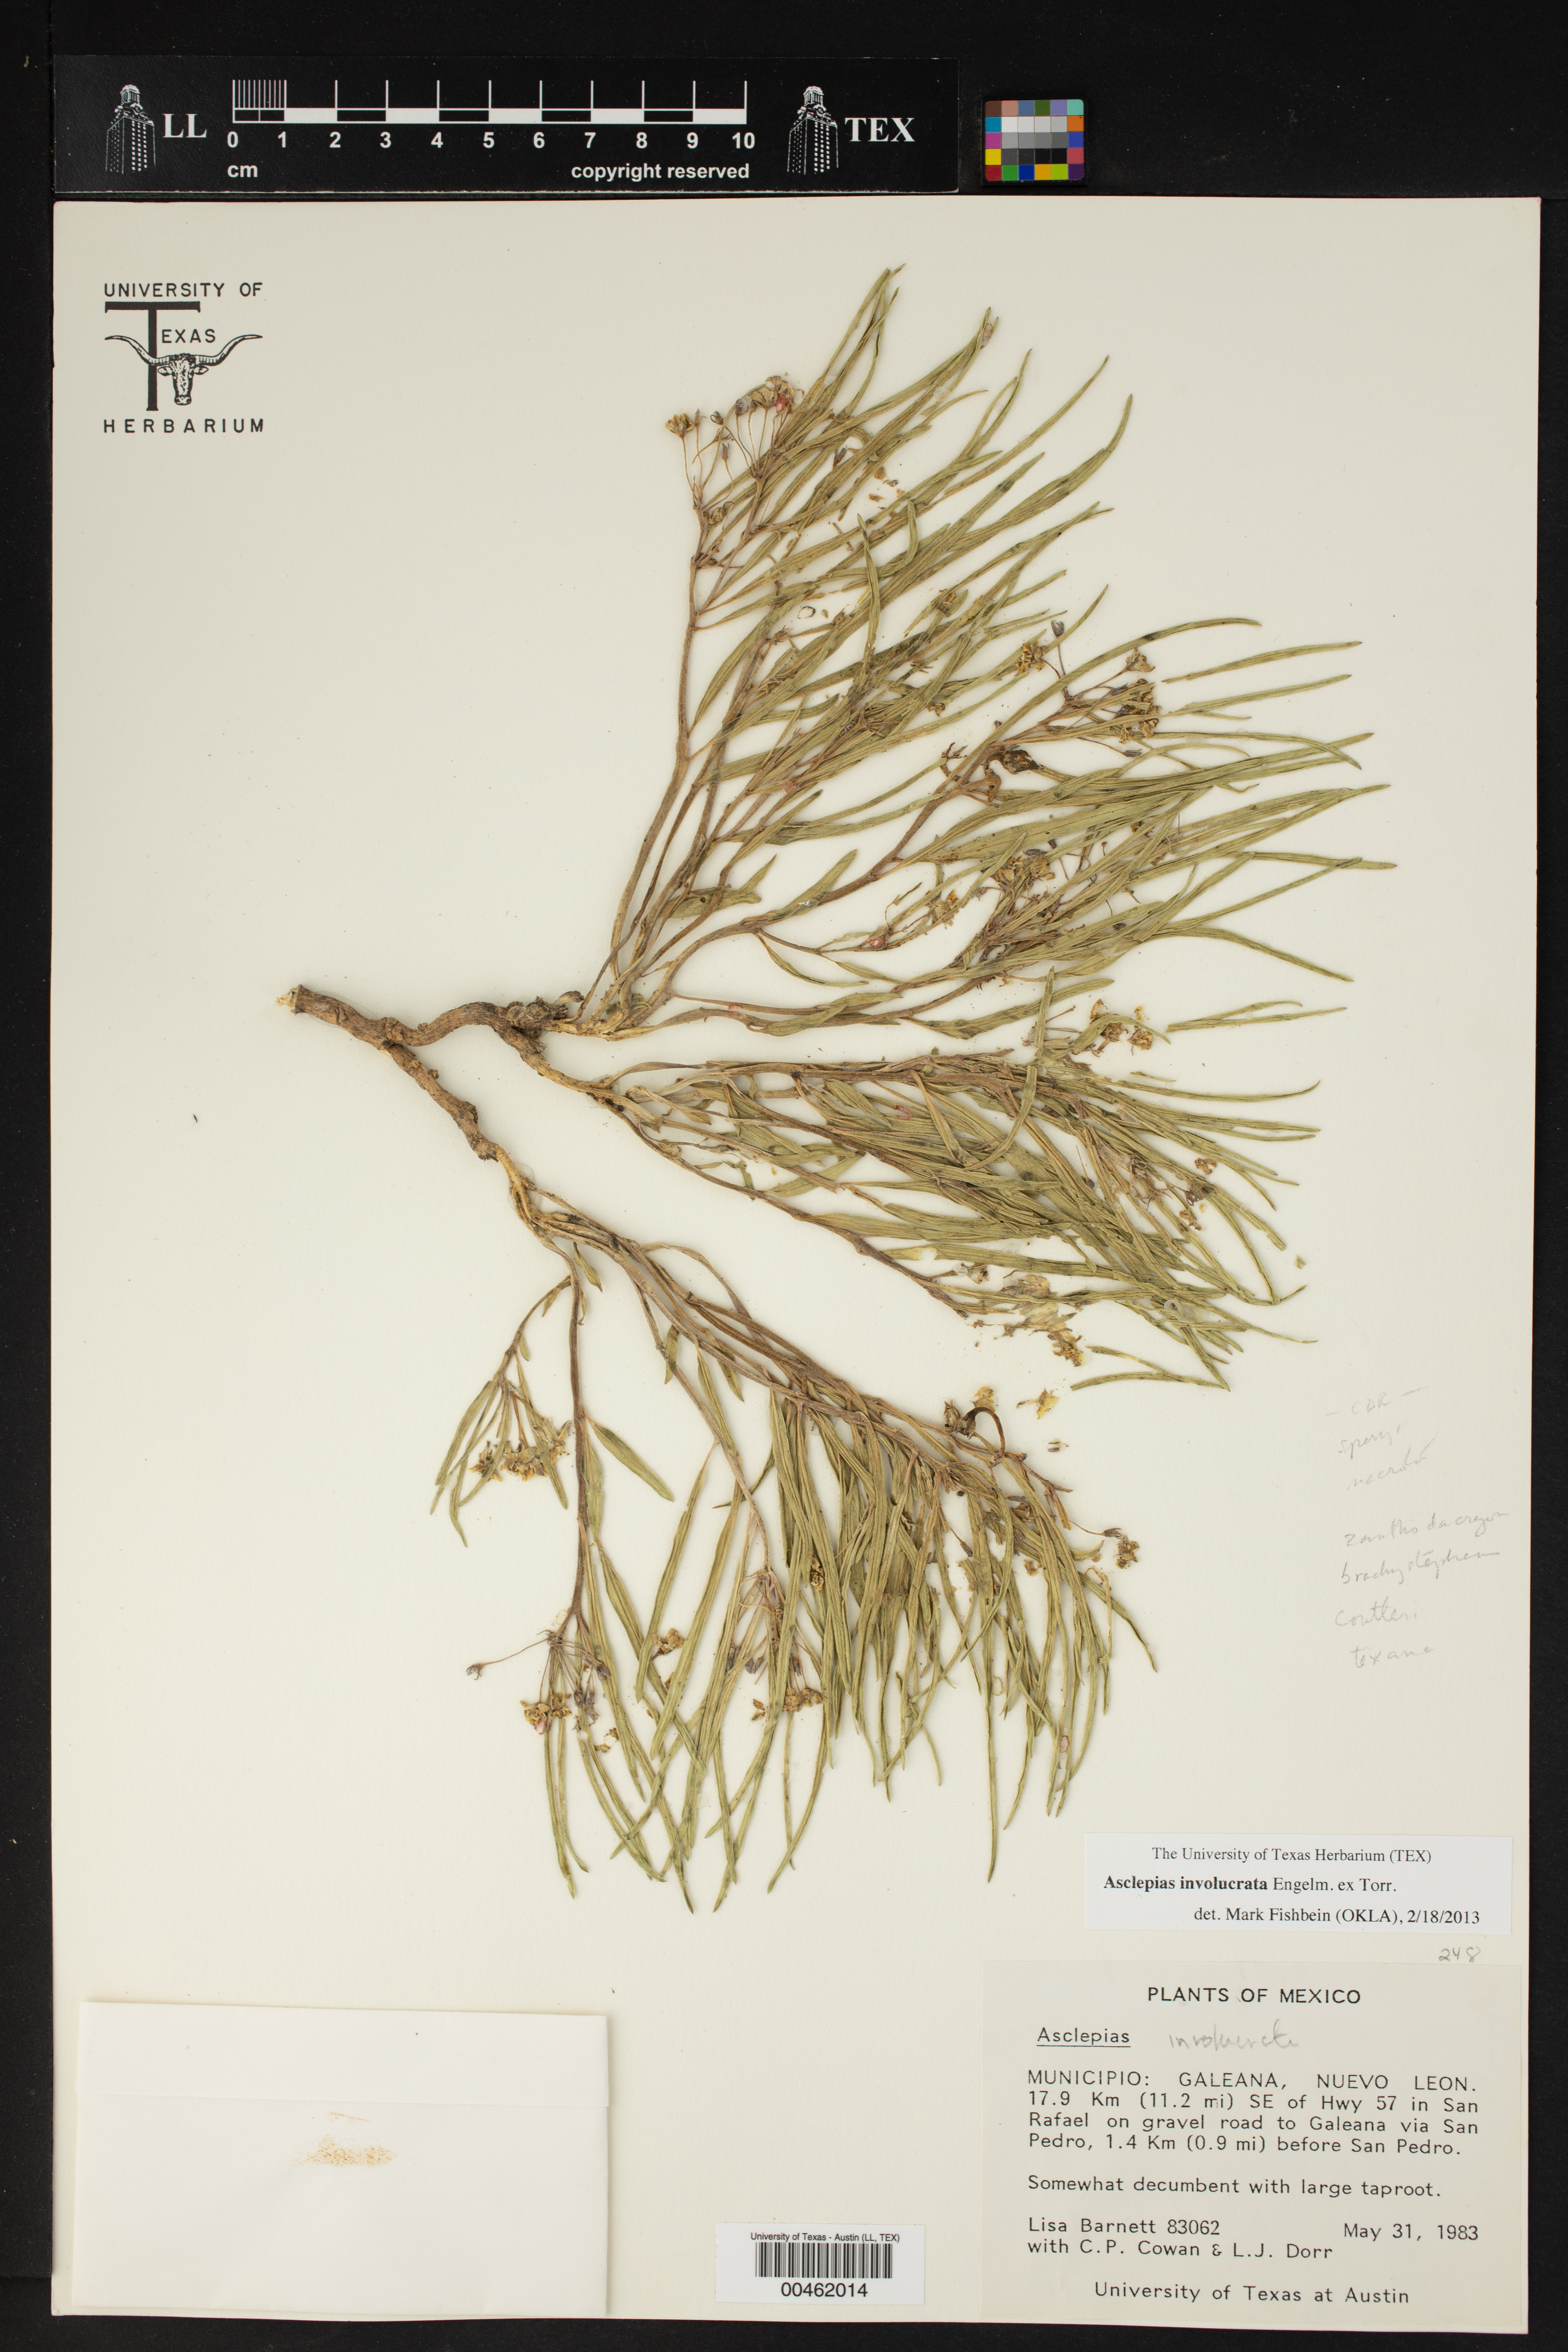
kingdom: Plantae
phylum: Tracheophyta
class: Magnoliopsida
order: Gentianales
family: Apocynaceae
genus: Asclepias
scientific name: Asclepias involucrata
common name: Dwarf milkweed
